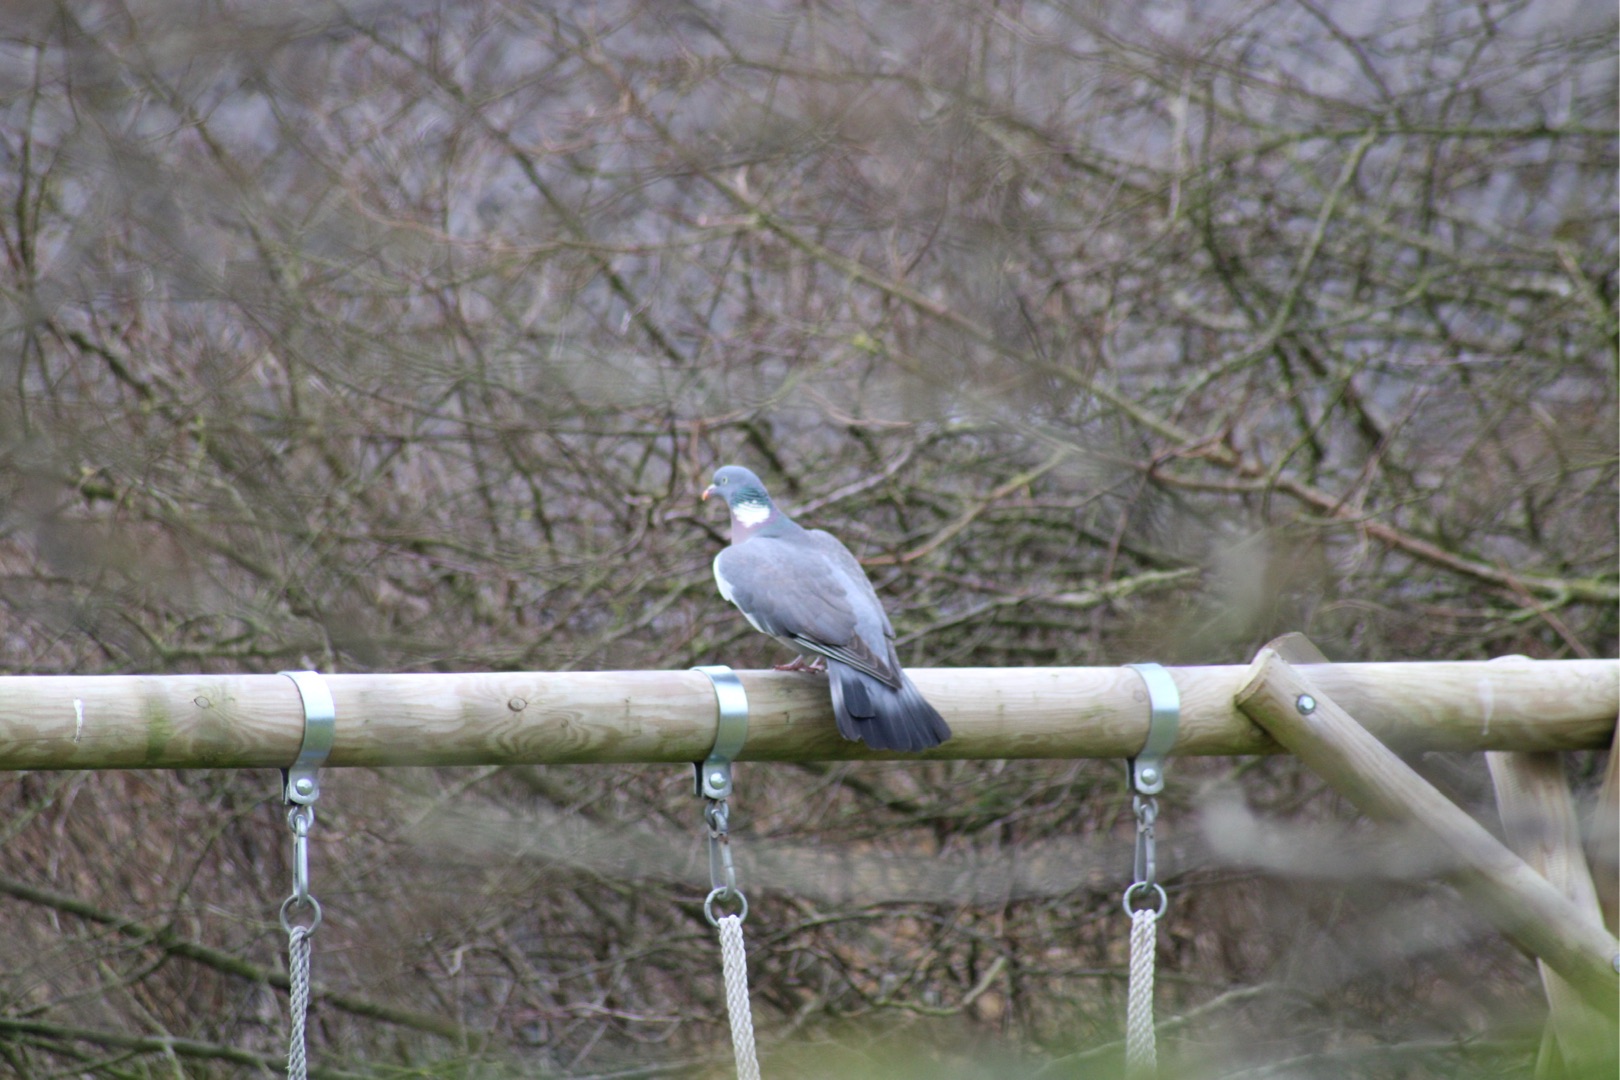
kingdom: Animalia
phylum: Chordata
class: Aves
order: Columbiformes
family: Columbidae
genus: Columba
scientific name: Columba palumbus
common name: Ringdue
